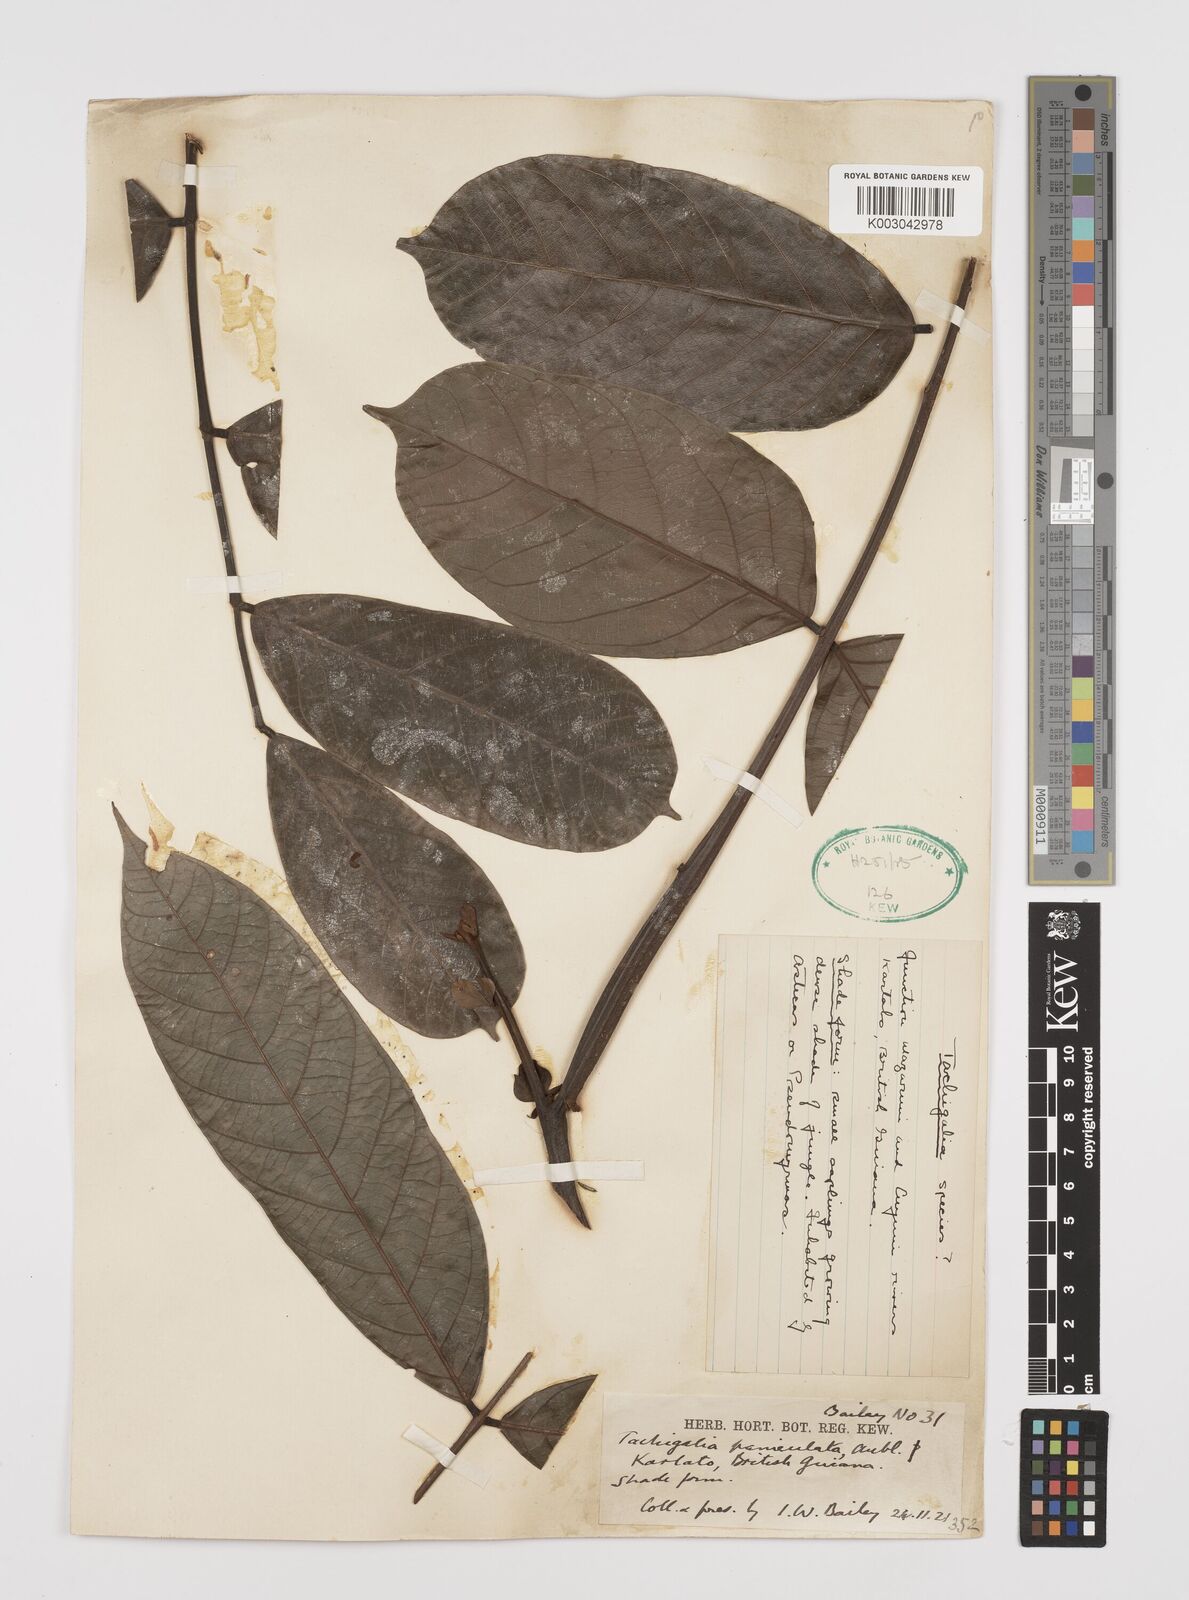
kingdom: Plantae
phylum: Tracheophyta
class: Magnoliopsida
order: Fabales
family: Fabaceae
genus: Tachigali
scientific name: Tachigali paniculata
